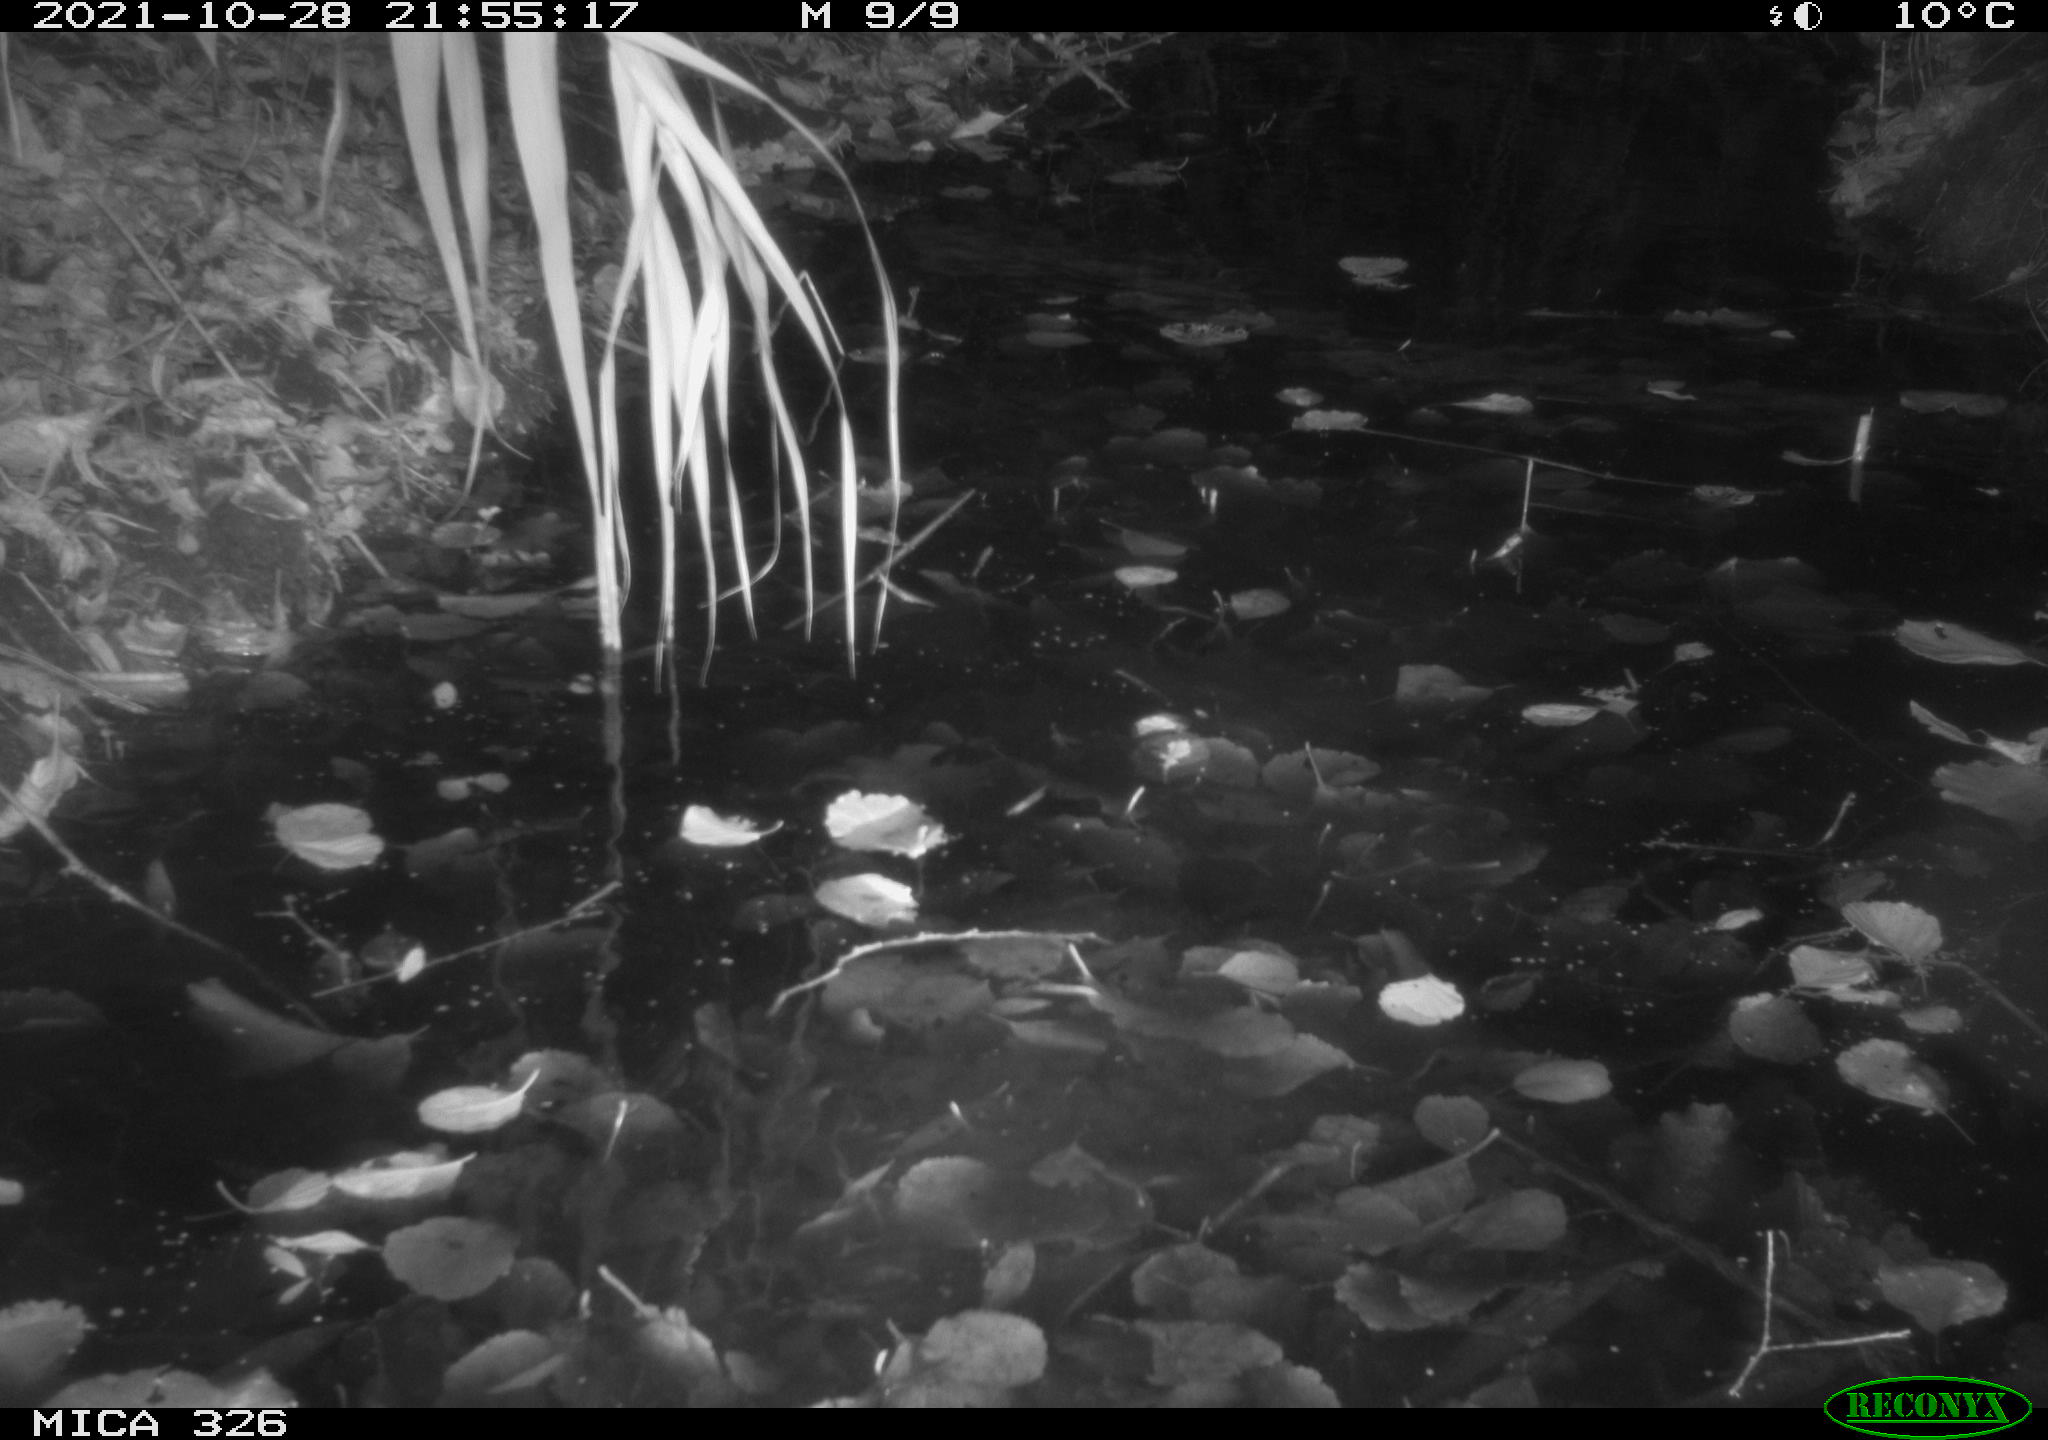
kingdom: Animalia
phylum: Chordata
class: Mammalia
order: Rodentia
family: Myocastoridae
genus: Myocastor
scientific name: Myocastor coypus
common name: Coypu
